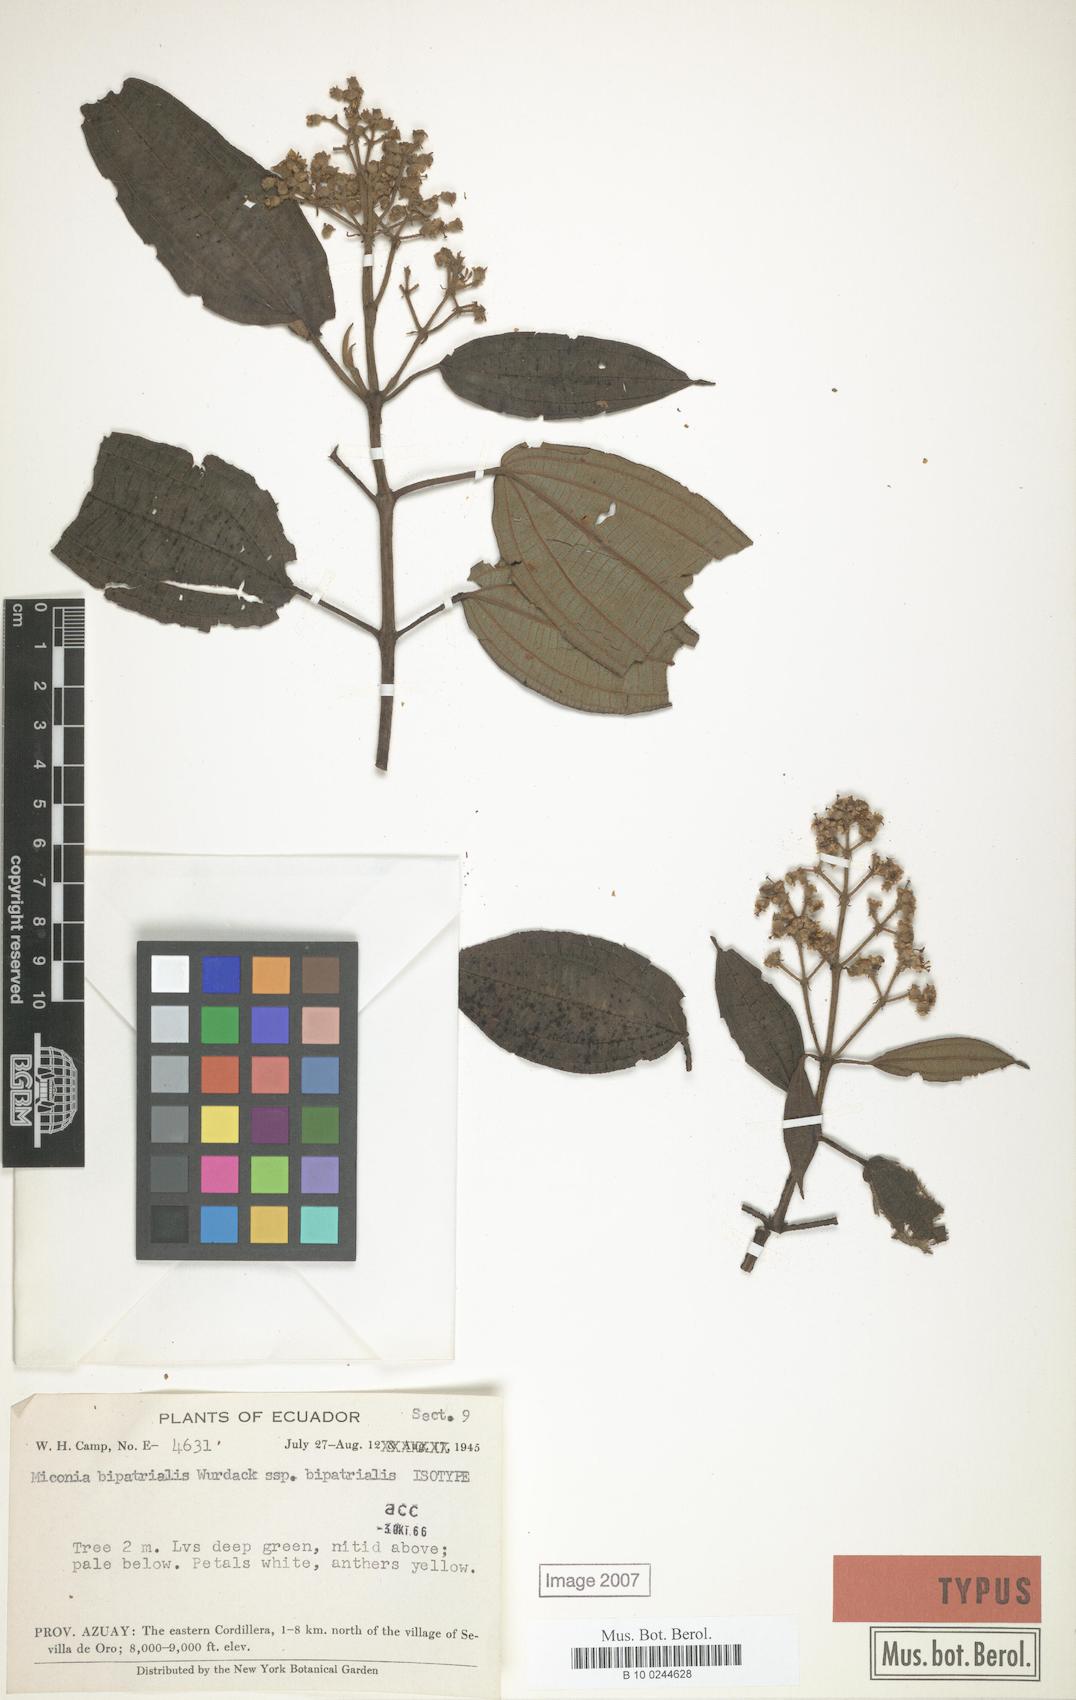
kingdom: Plantae
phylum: Tracheophyta
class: Magnoliopsida
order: Myrtales
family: Melastomataceae
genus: Miconia
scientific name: Miconia bipatrialis
